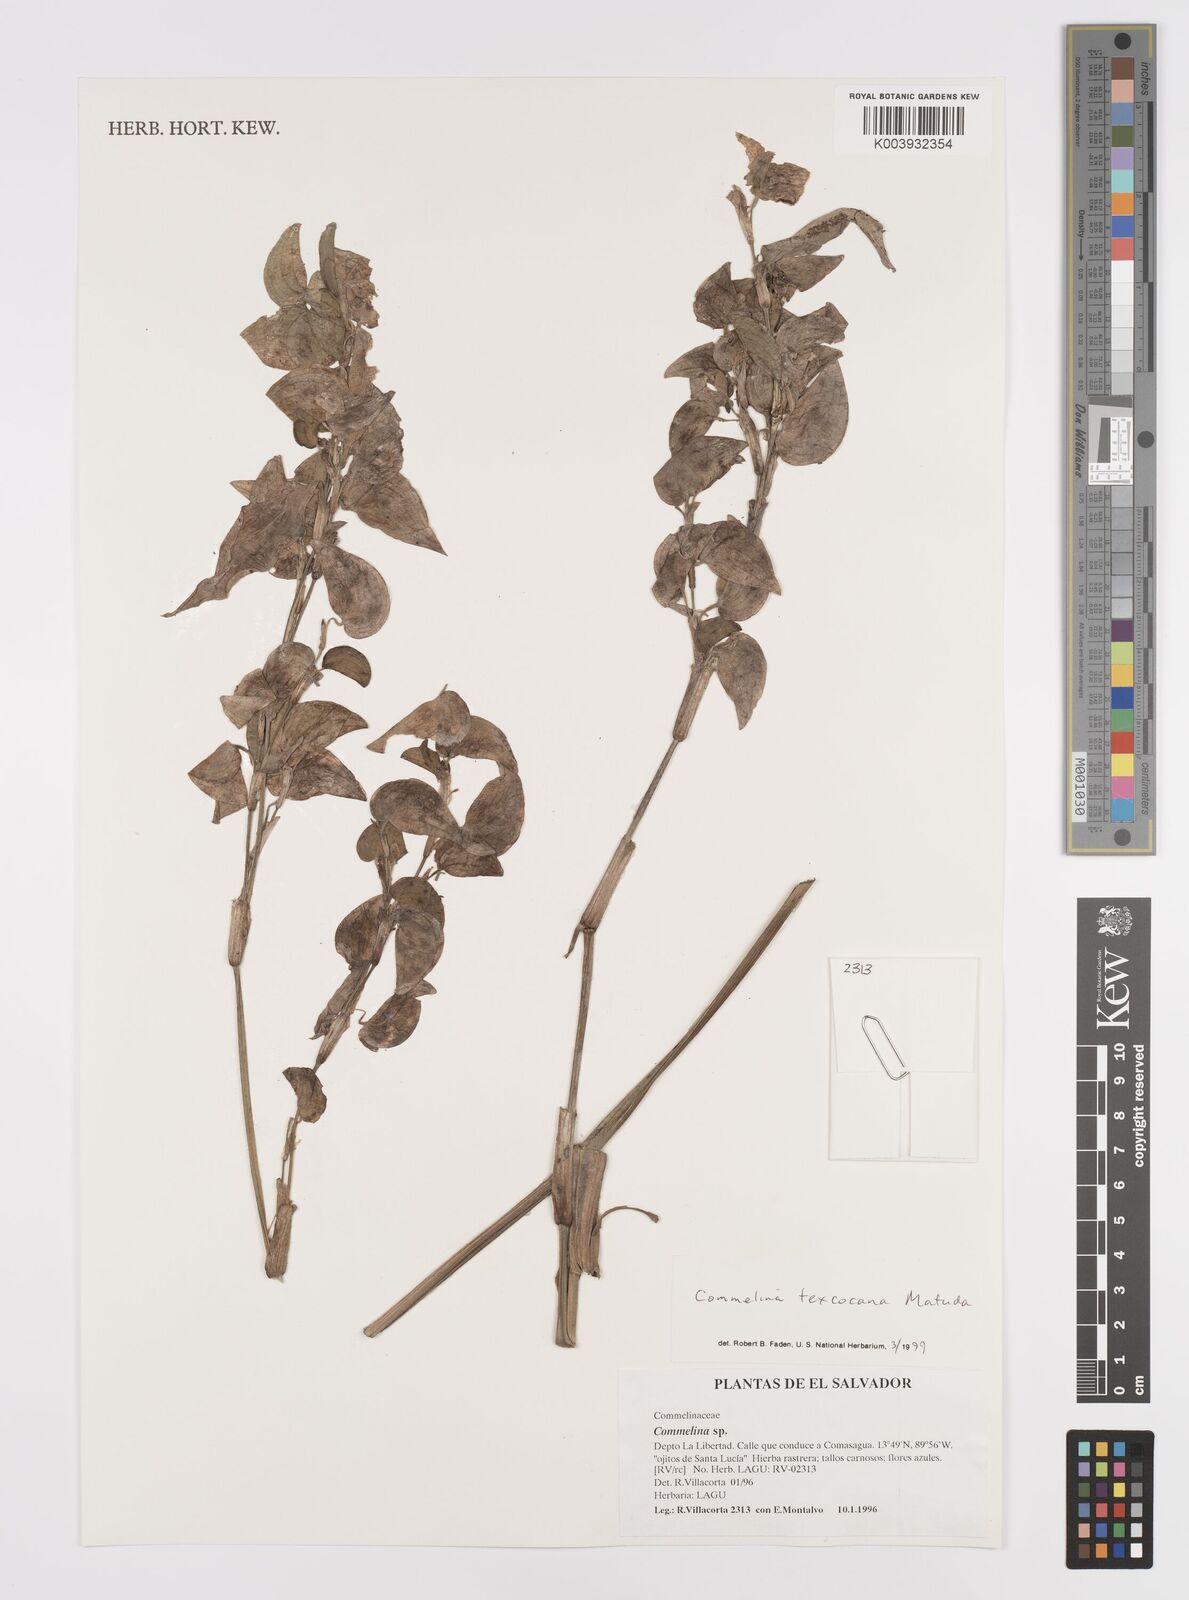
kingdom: Plantae
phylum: Tracheophyta
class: Liliopsida
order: Commelinales
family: Commelinaceae
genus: Commelina
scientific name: Commelina texcocana
